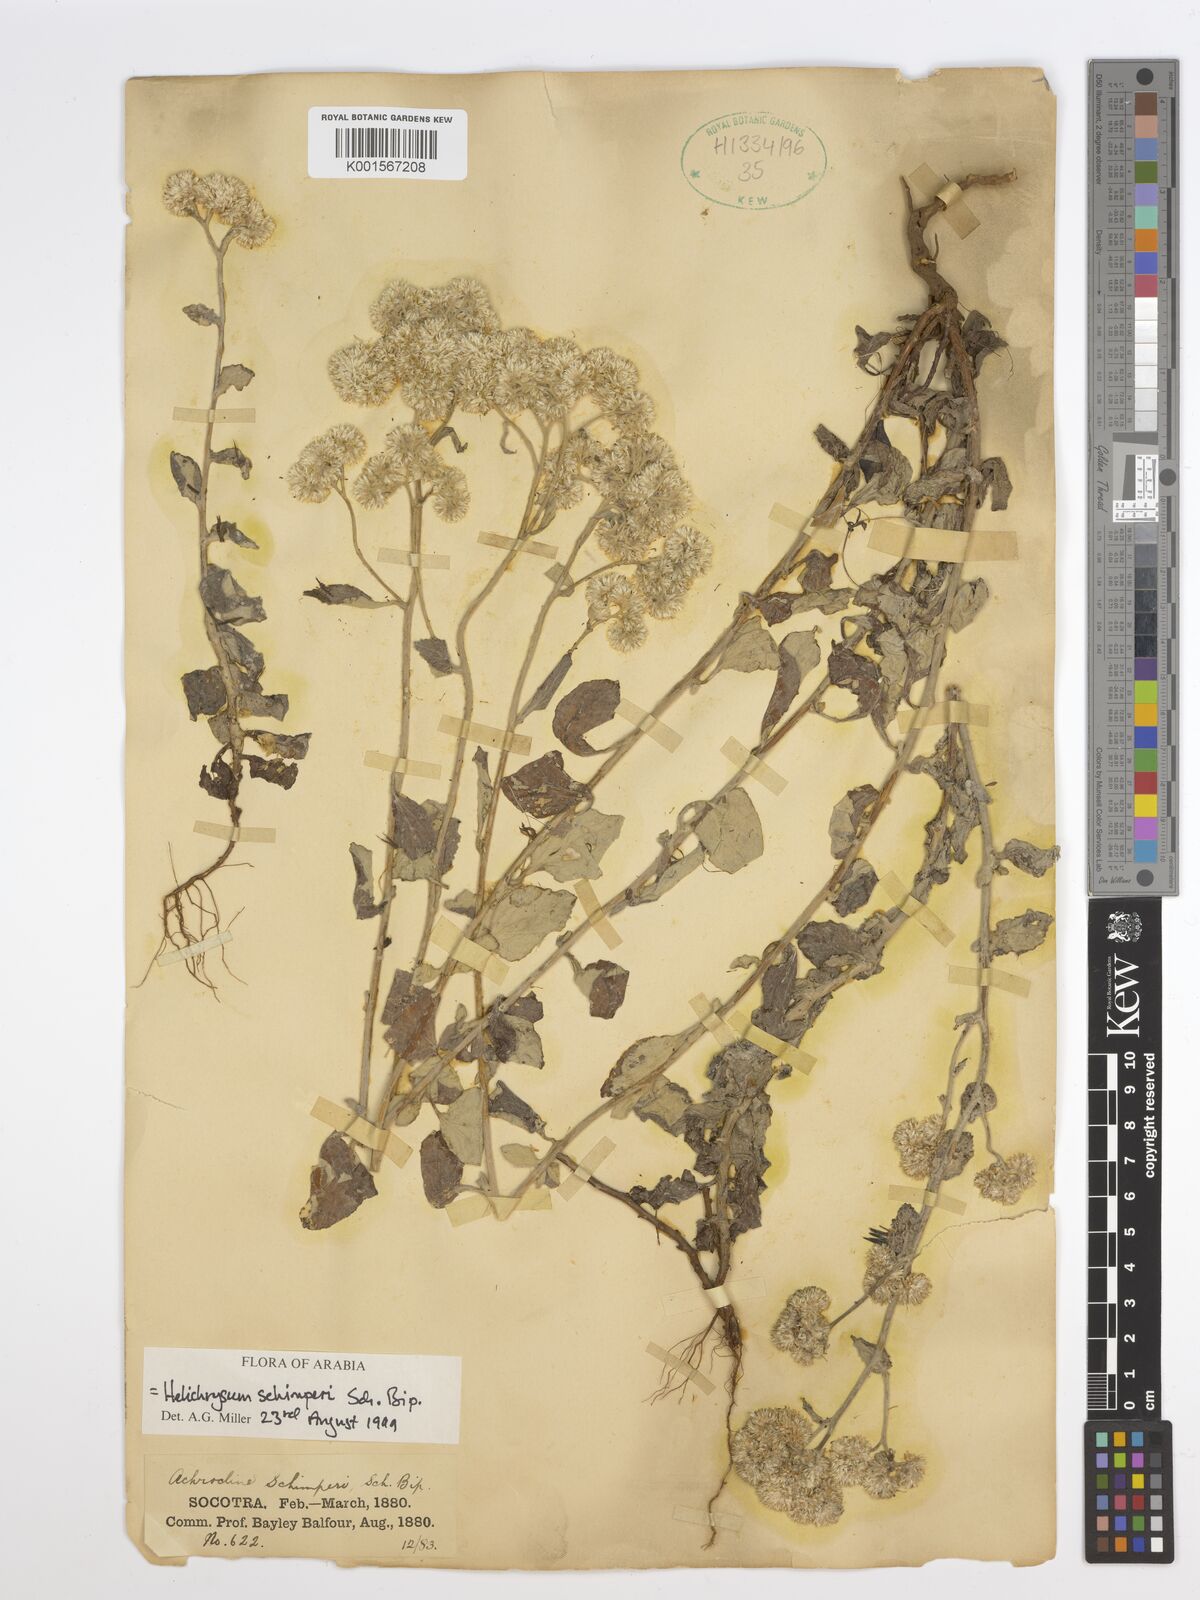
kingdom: Plantae
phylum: Tracheophyta
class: Magnoliopsida
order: Asterales
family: Asteraceae
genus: Helichrysum
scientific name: Helichrysum schimperi
